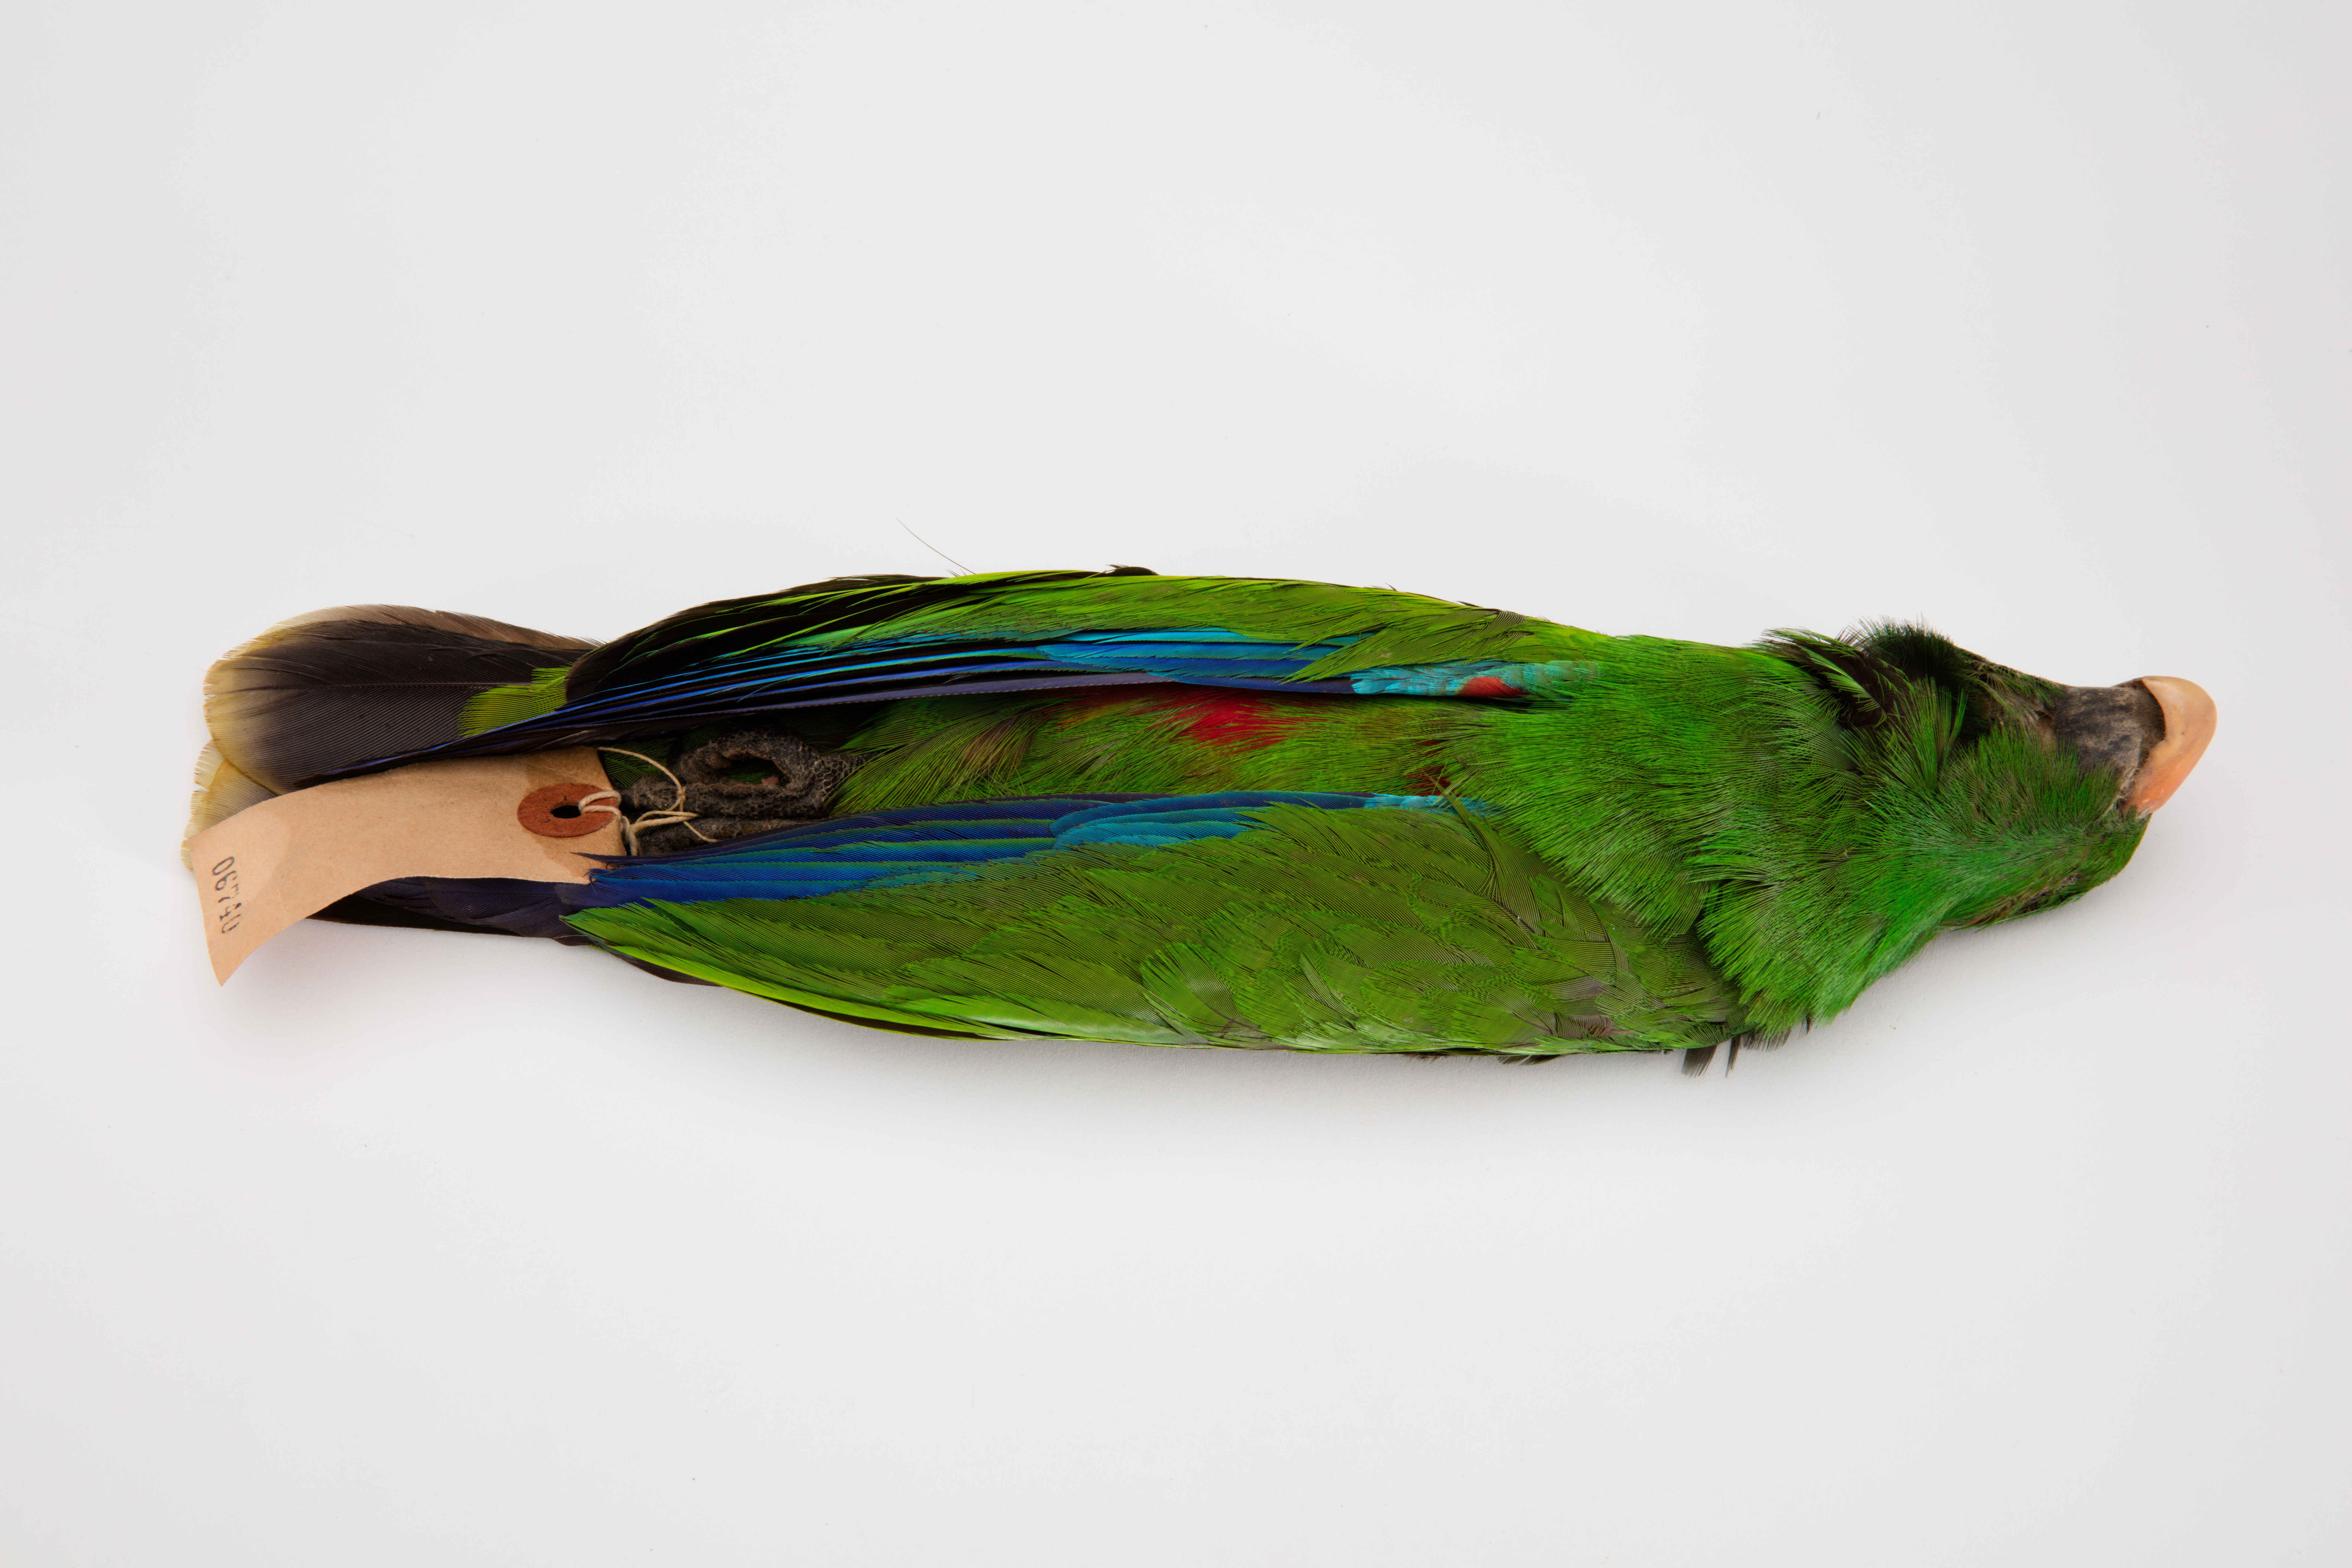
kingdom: Animalia
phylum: Chordata
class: Aves
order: Psittaciformes
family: Psittacidae
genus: Eclectus
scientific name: Eclectus roratus
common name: Eclectus parrot
